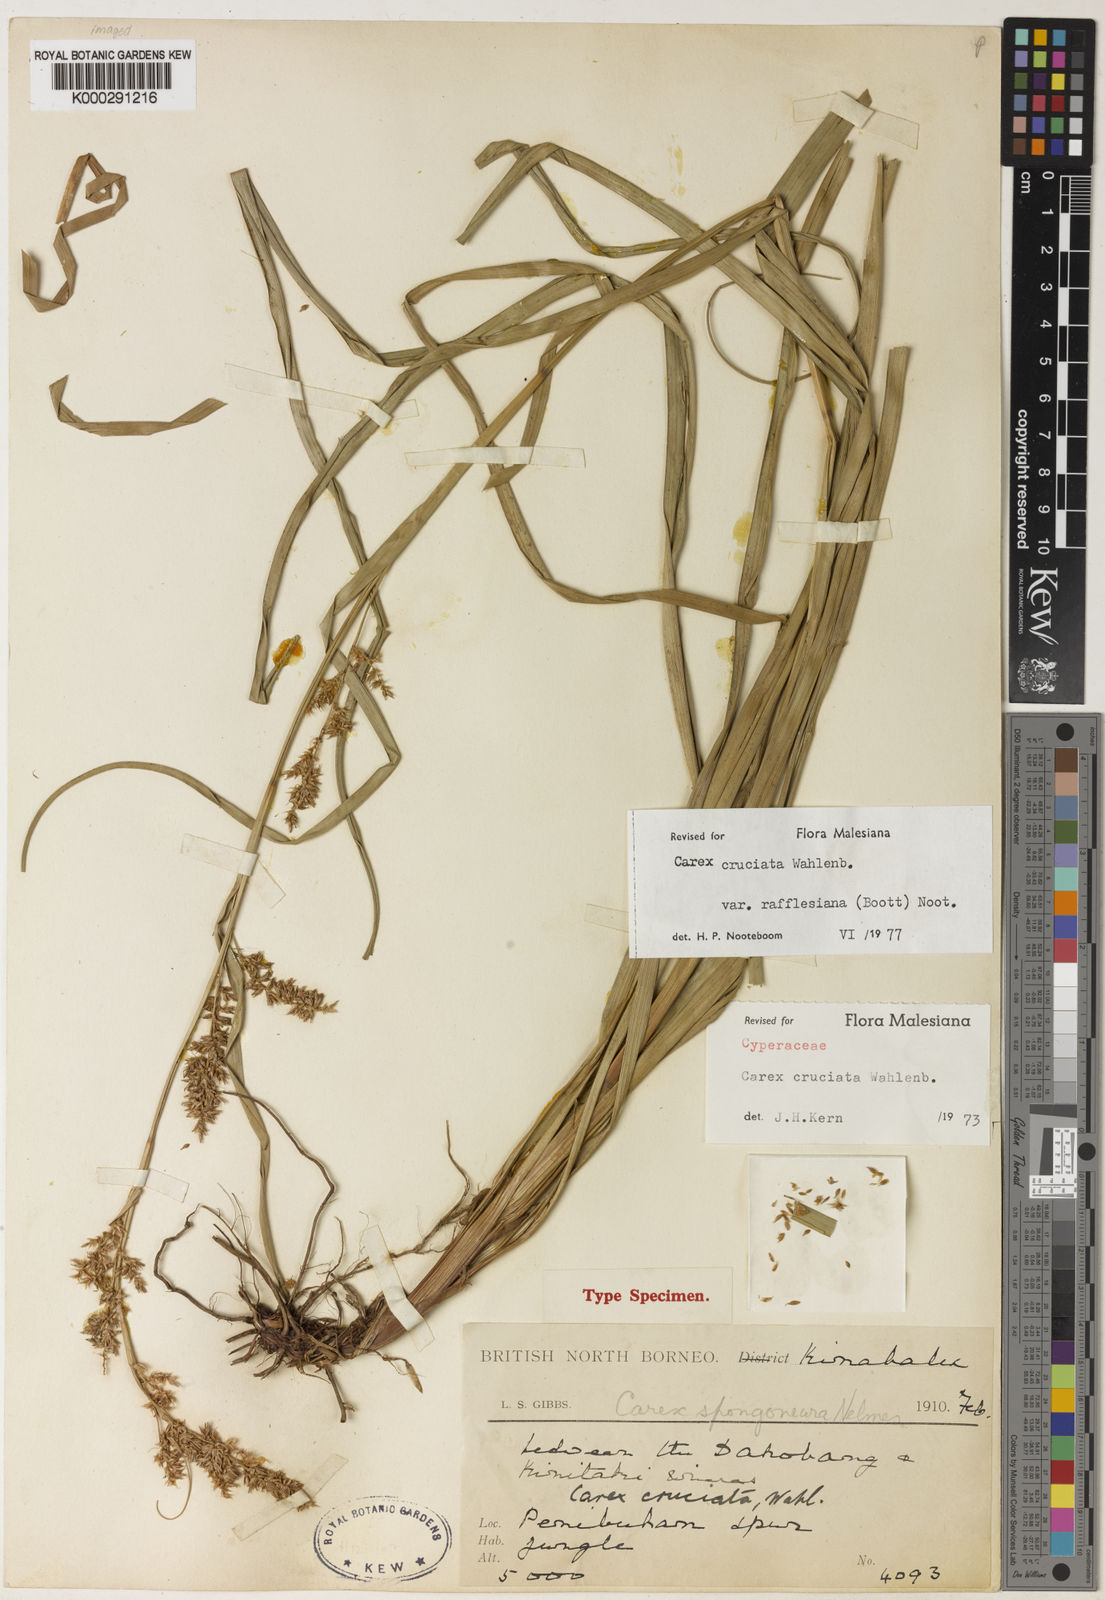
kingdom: Plantae
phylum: Tracheophyta
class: Liliopsida
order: Poales
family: Cyperaceae
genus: Carex
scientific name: Carex rafflesiana
